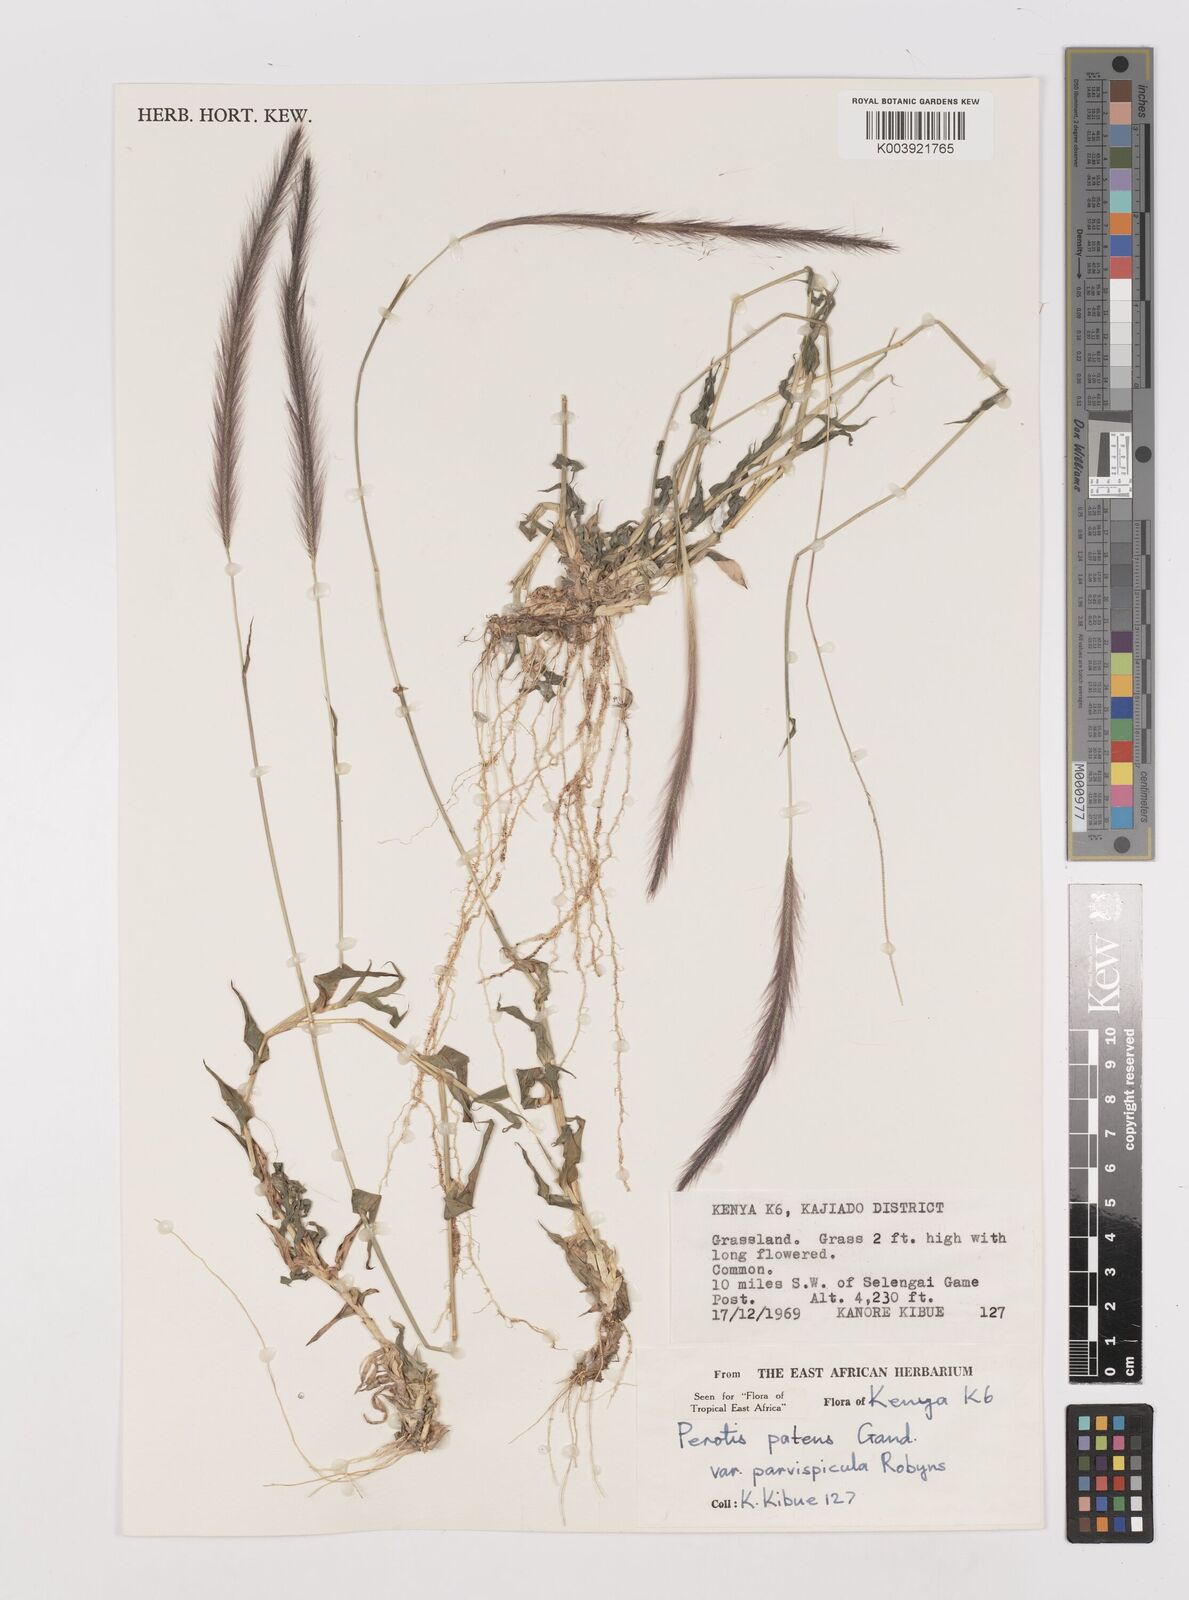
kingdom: Plantae
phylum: Tracheophyta
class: Liliopsida
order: Poales
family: Poaceae
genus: Perotis
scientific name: Perotis patens
